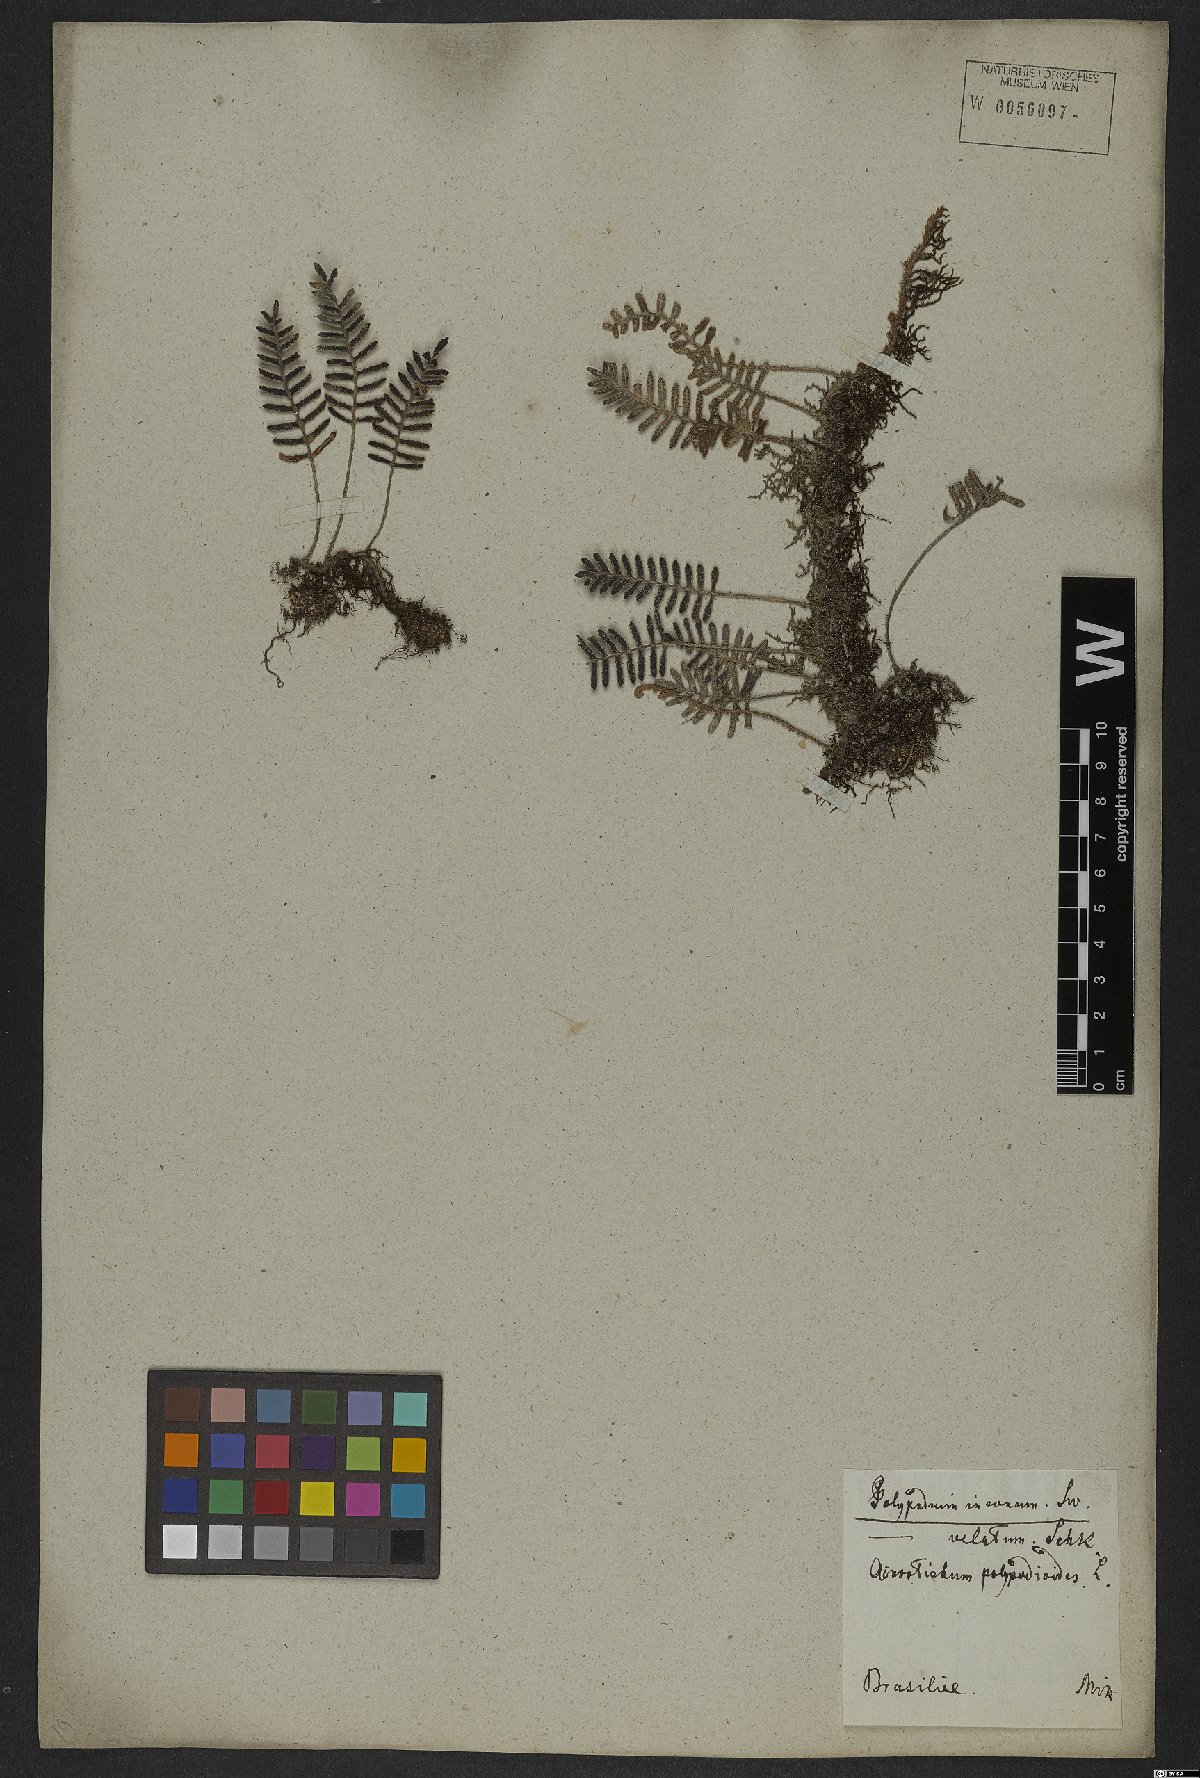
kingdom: Plantae
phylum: Tracheophyta
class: Polypodiopsida
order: Polypodiales
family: Polypodiaceae
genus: Pleopeltis
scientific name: Pleopeltis polypodioides
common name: Resurrection fern
